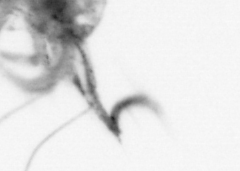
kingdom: Animalia
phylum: Arthropoda
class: Copepoda
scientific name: Copepoda
